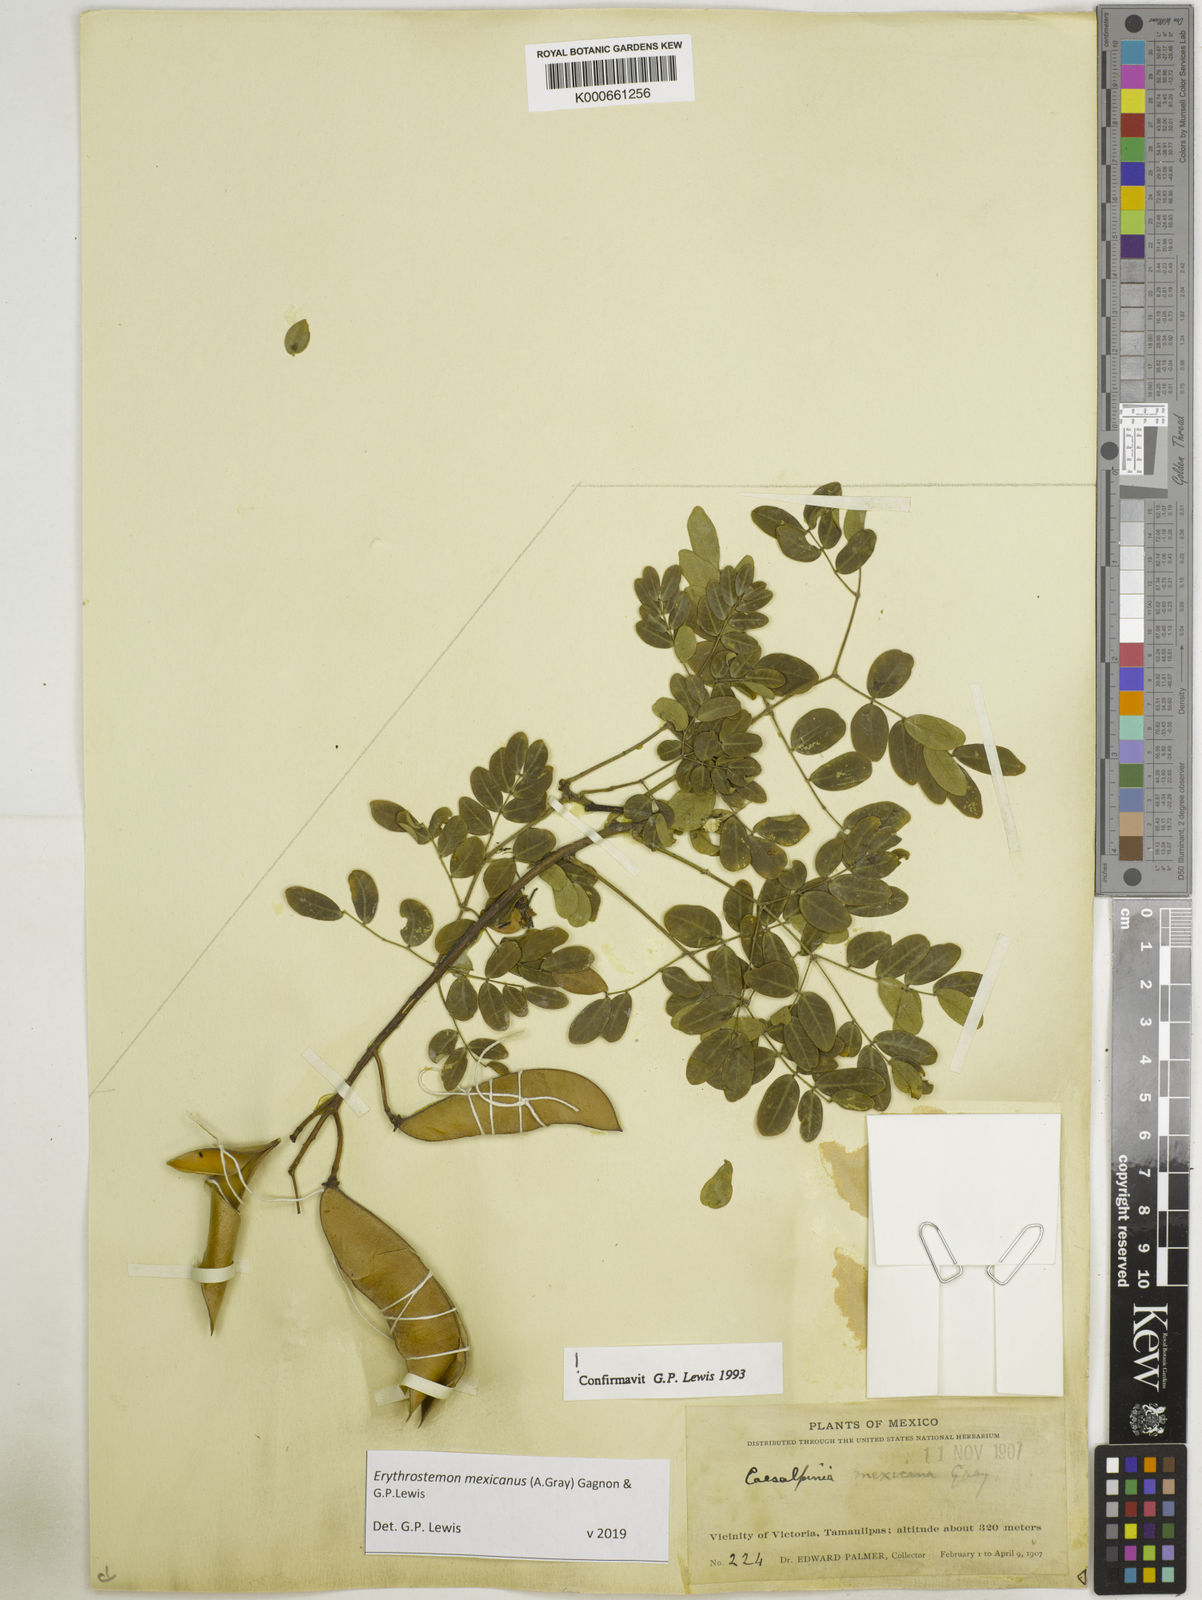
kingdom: Plantae
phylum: Tracheophyta
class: Magnoliopsida
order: Fabales
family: Fabaceae
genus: Erythrostemon
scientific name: Erythrostemon mexicanus
